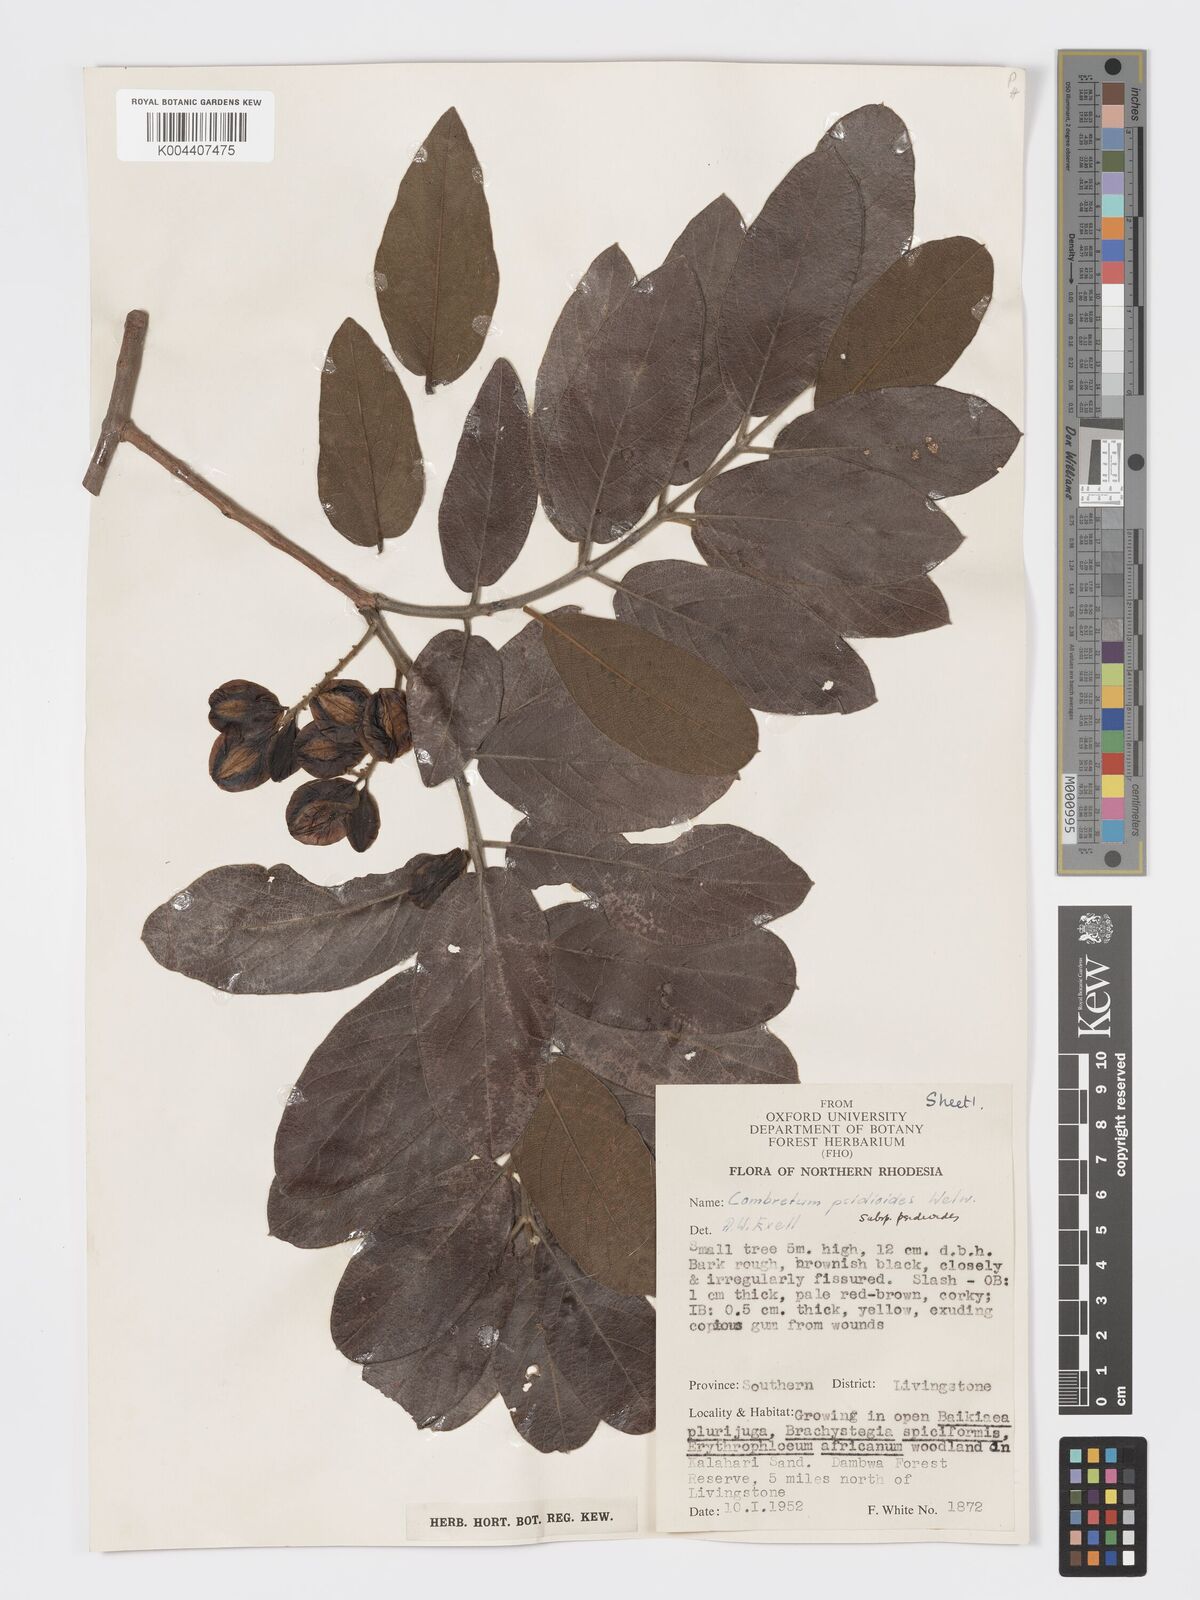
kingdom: Plantae
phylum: Tracheophyta
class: Magnoliopsida
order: Myrtales
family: Combretaceae
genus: Combretum
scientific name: Combretum psidioides
